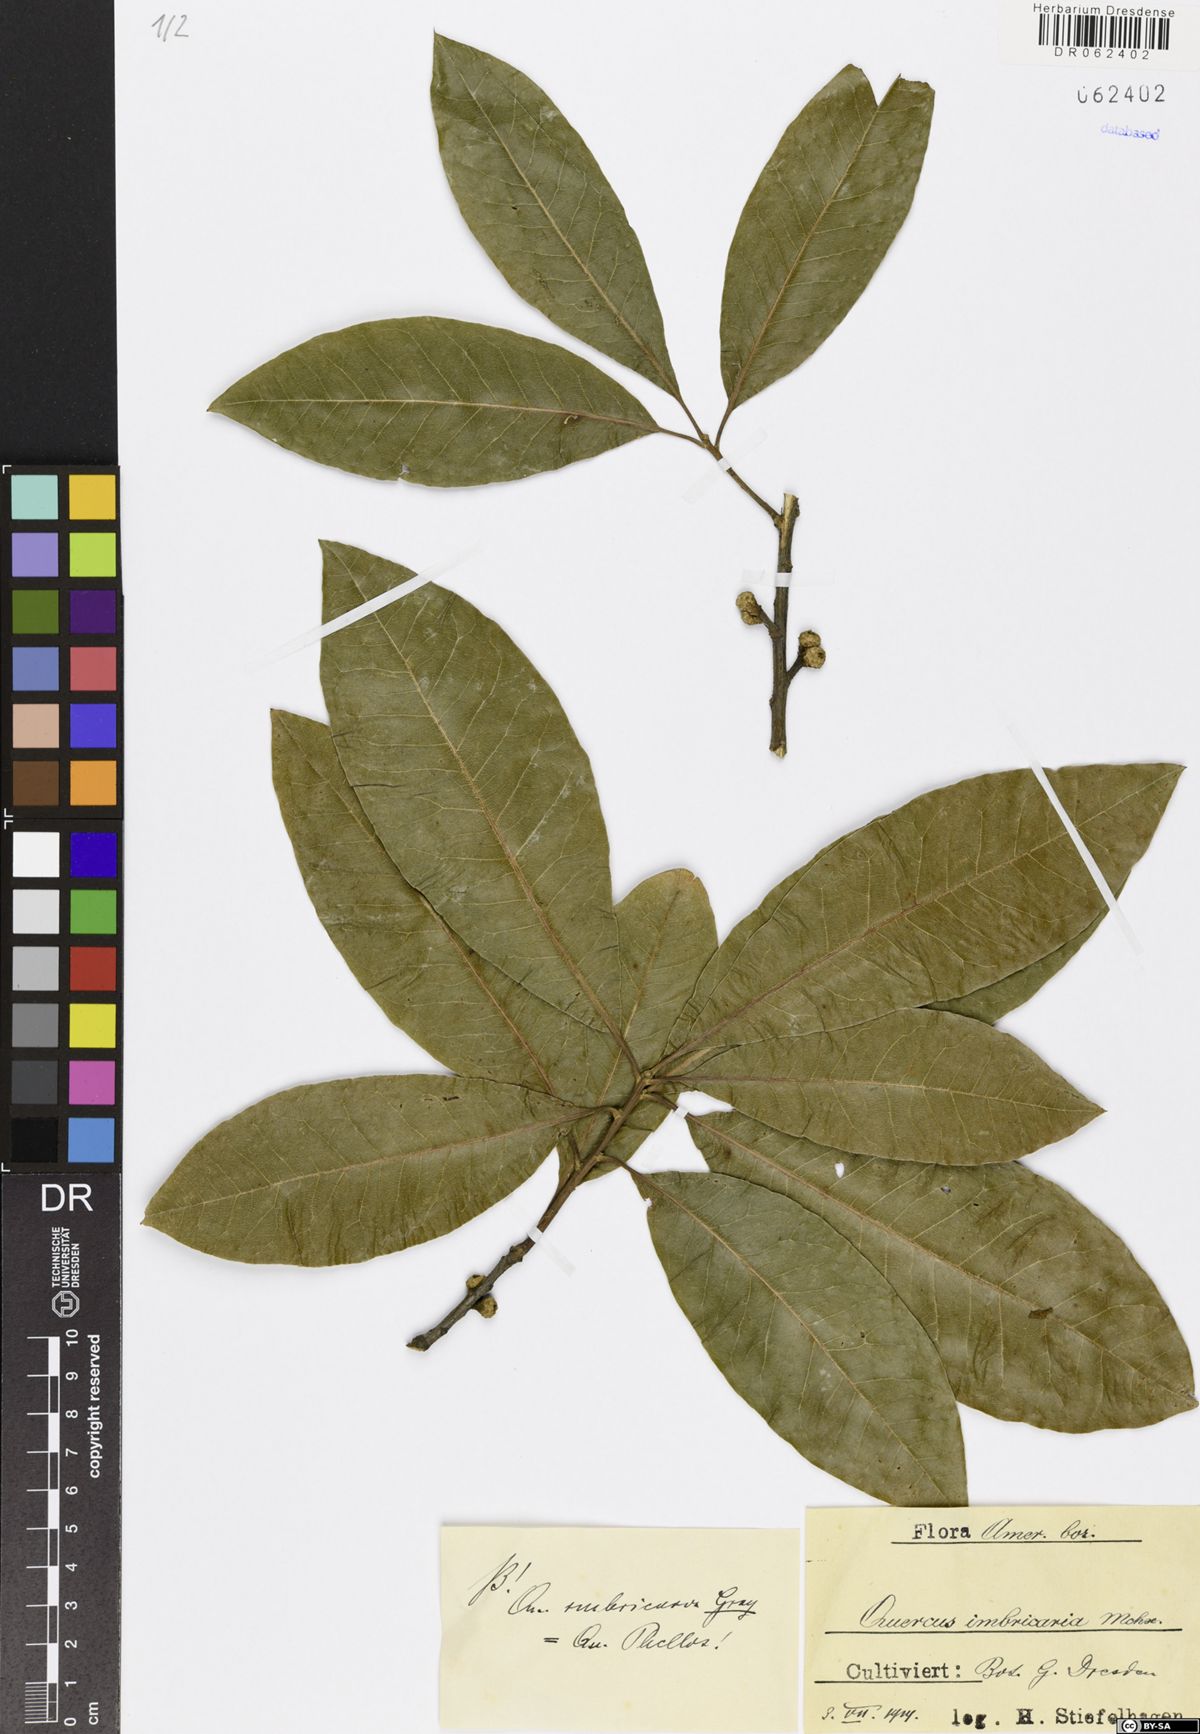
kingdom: Plantae
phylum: Tracheophyta
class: Magnoliopsida
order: Fagales
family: Fagaceae
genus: Quercus
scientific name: Quercus imbricaria
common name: Shingle oak
